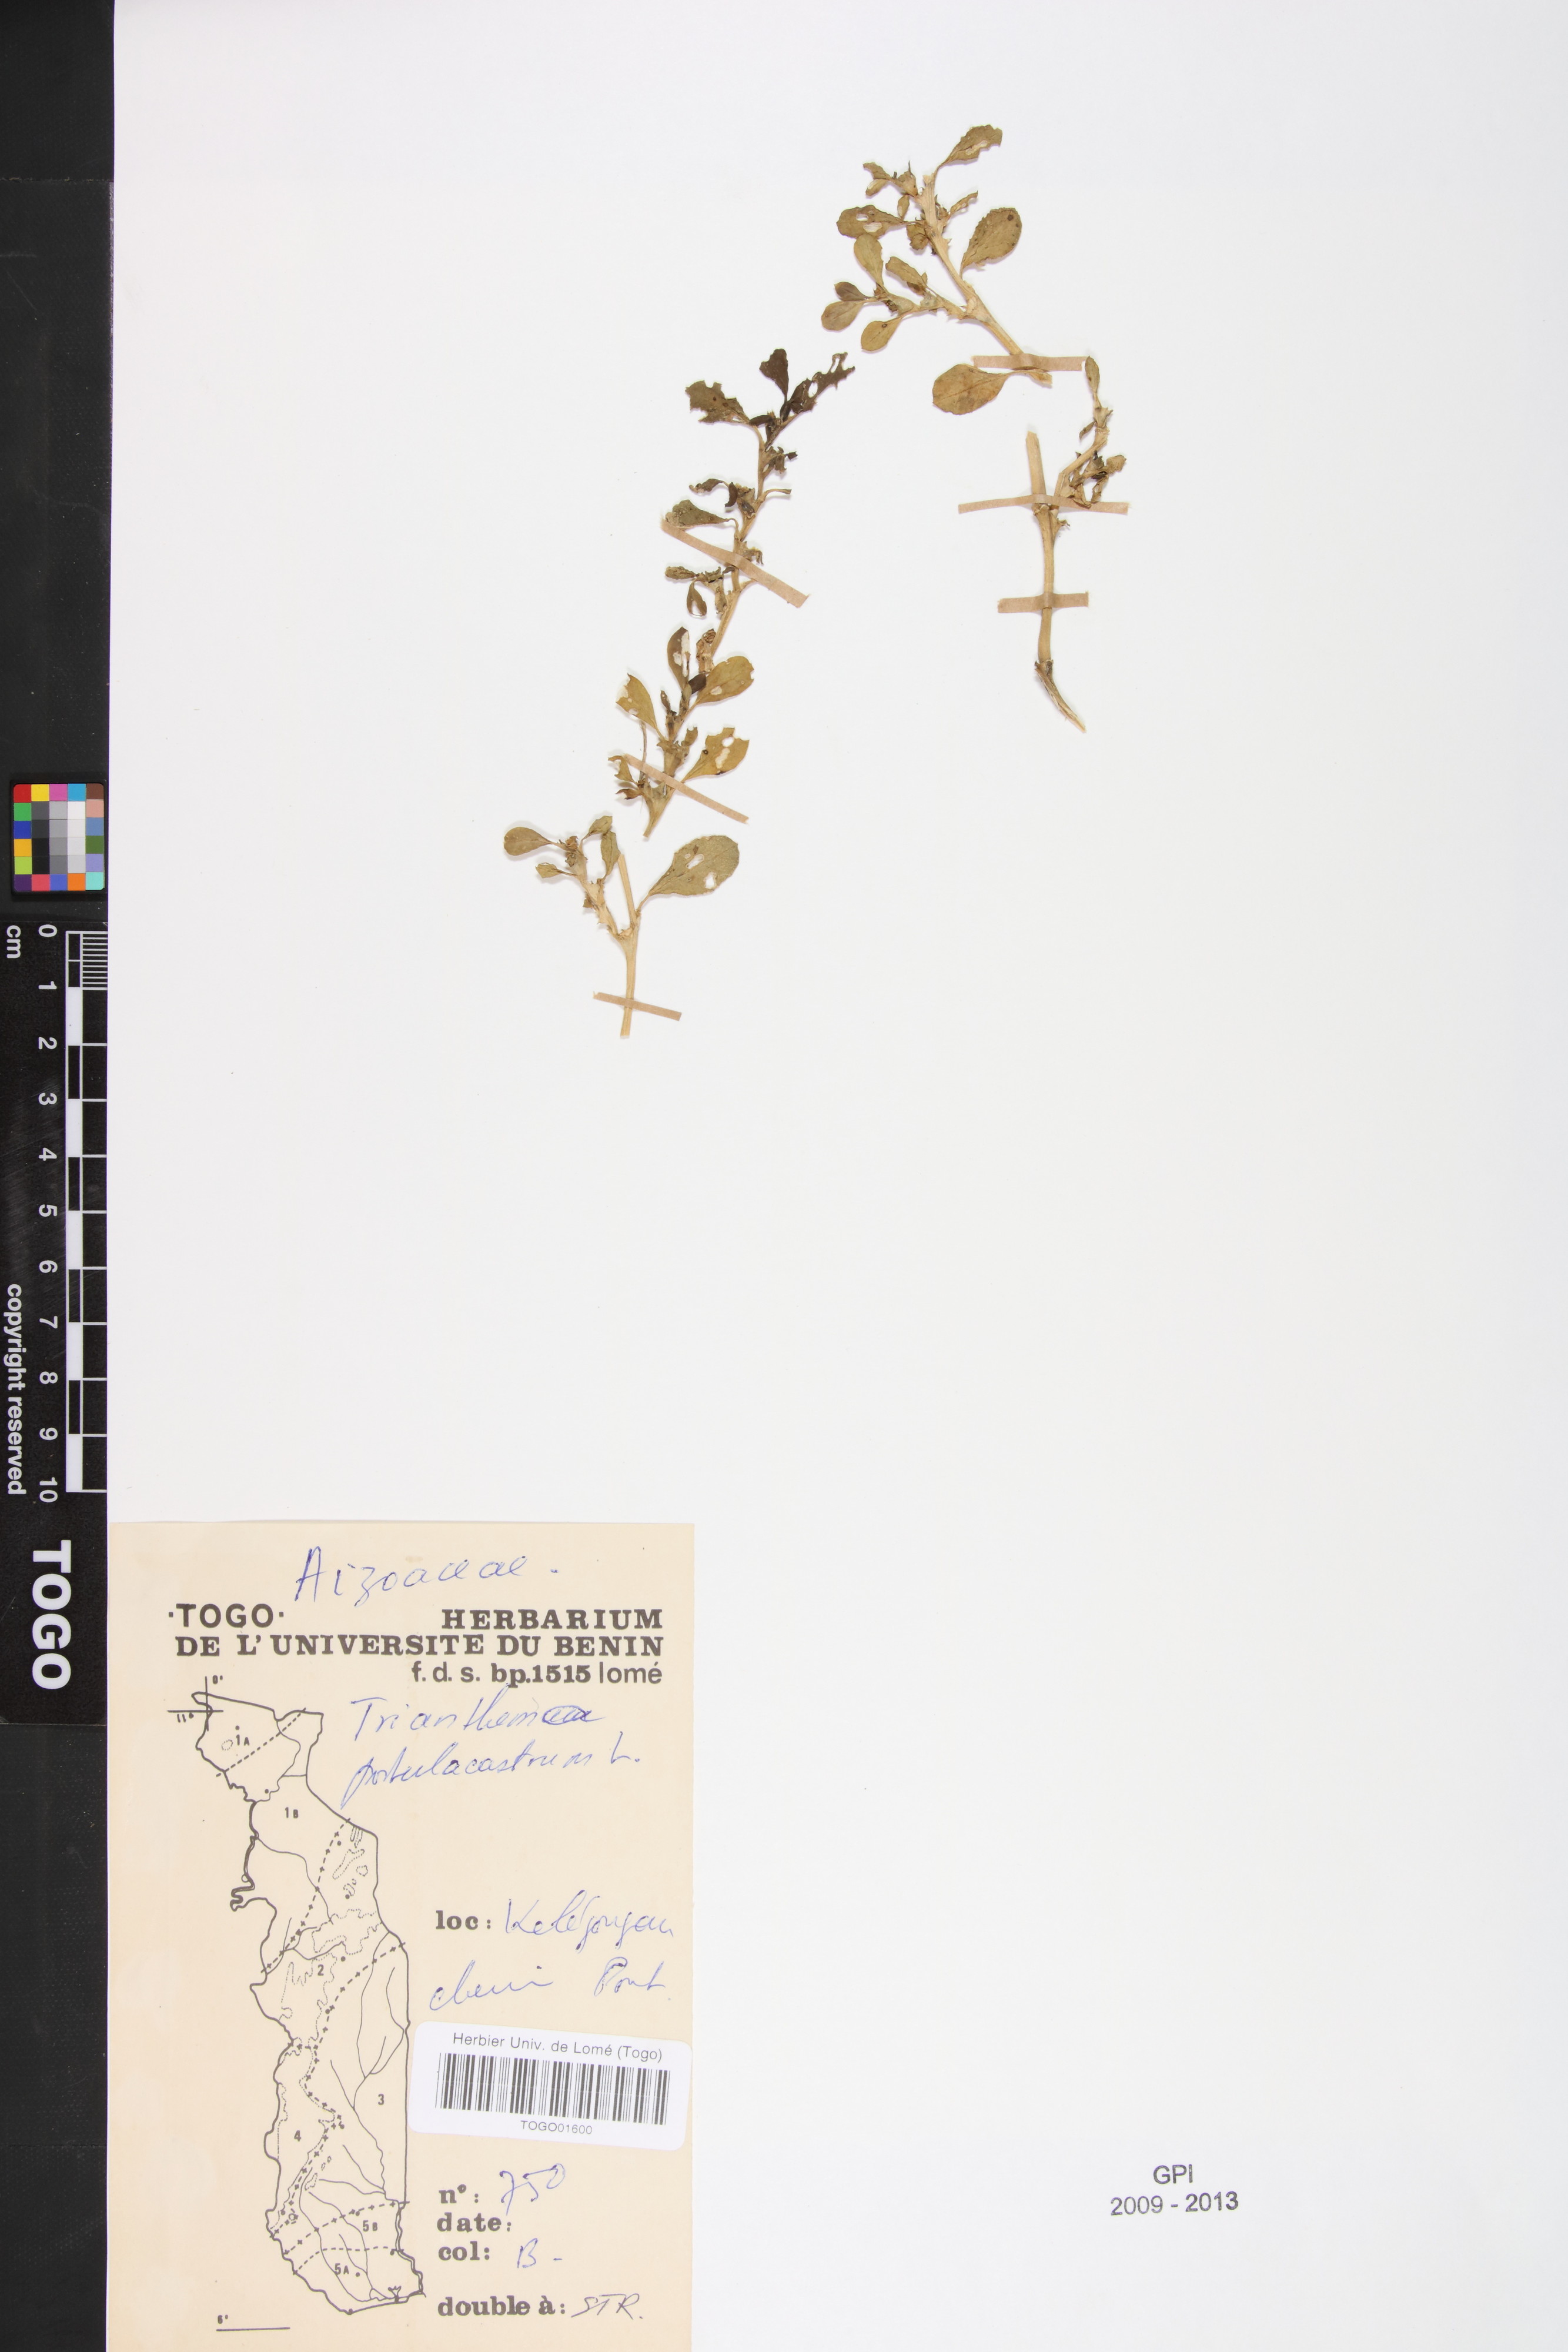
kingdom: Plantae
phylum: Tracheophyta
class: Magnoliopsida
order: Caryophyllales
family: Aizoaceae
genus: Trianthema
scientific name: Trianthema portulacastrum
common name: Desert horsepurslane
